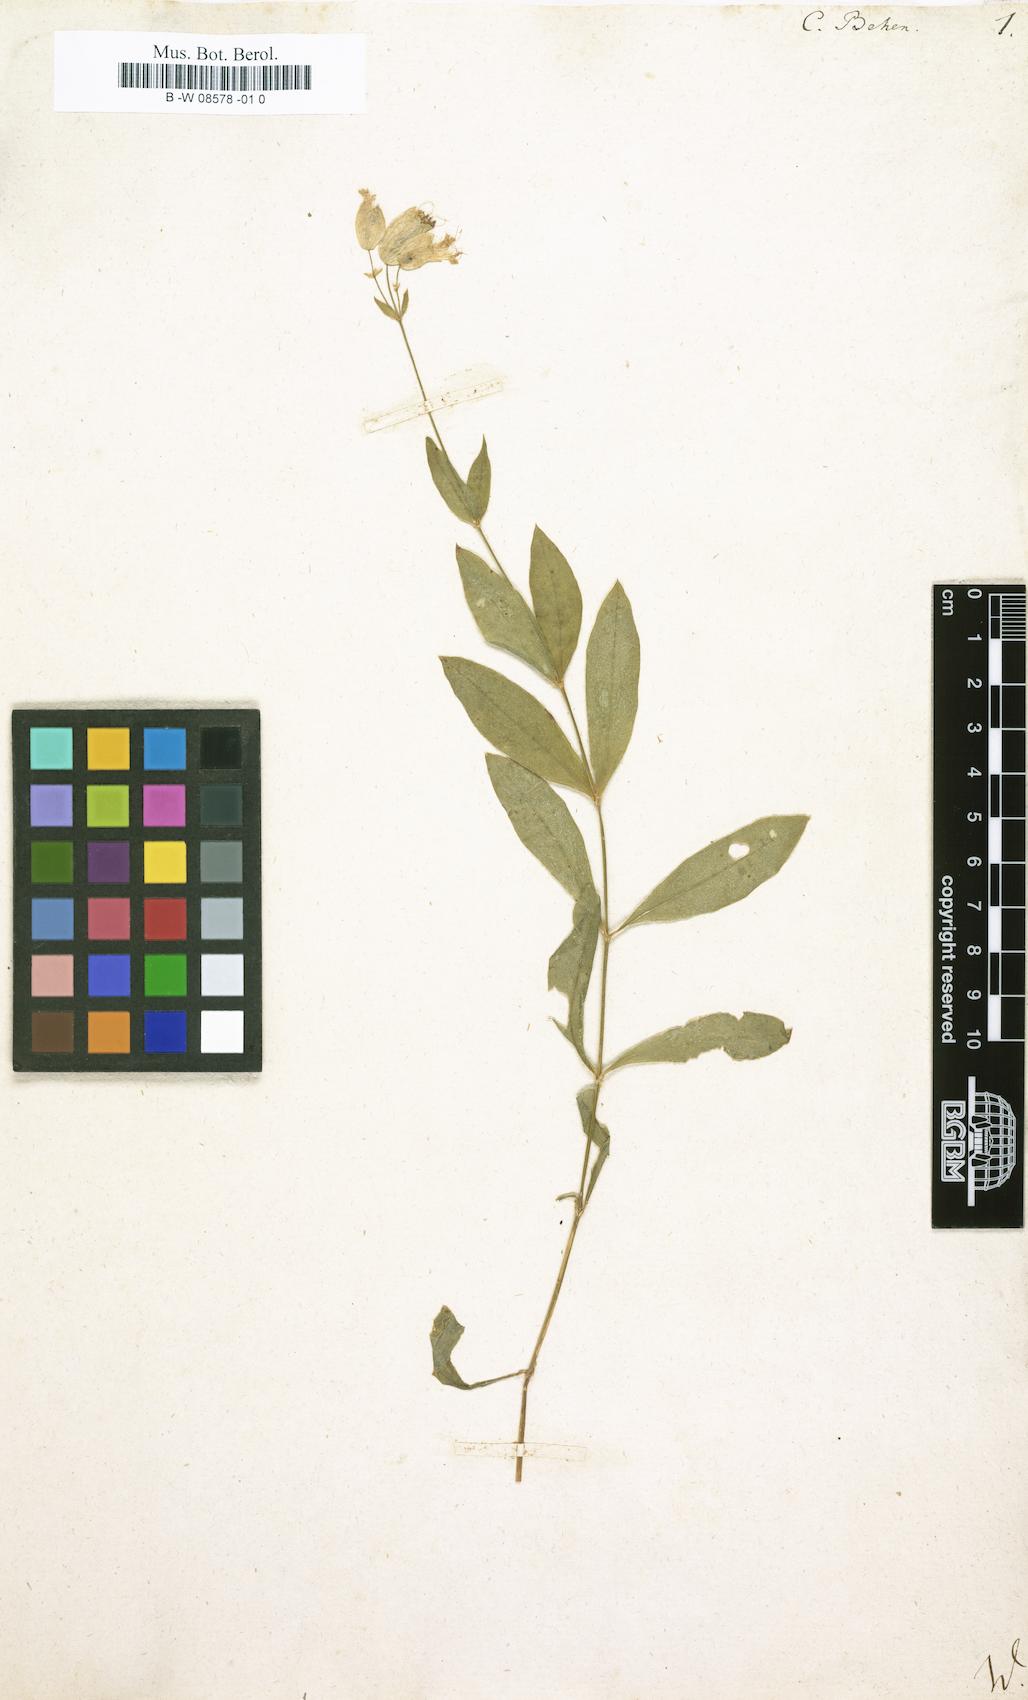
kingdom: Plantae
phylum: Tracheophyta
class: Magnoliopsida
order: Caryophyllales
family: Caryophyllaceae
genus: Silene
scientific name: Silene vulgaris
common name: Bladder campion
